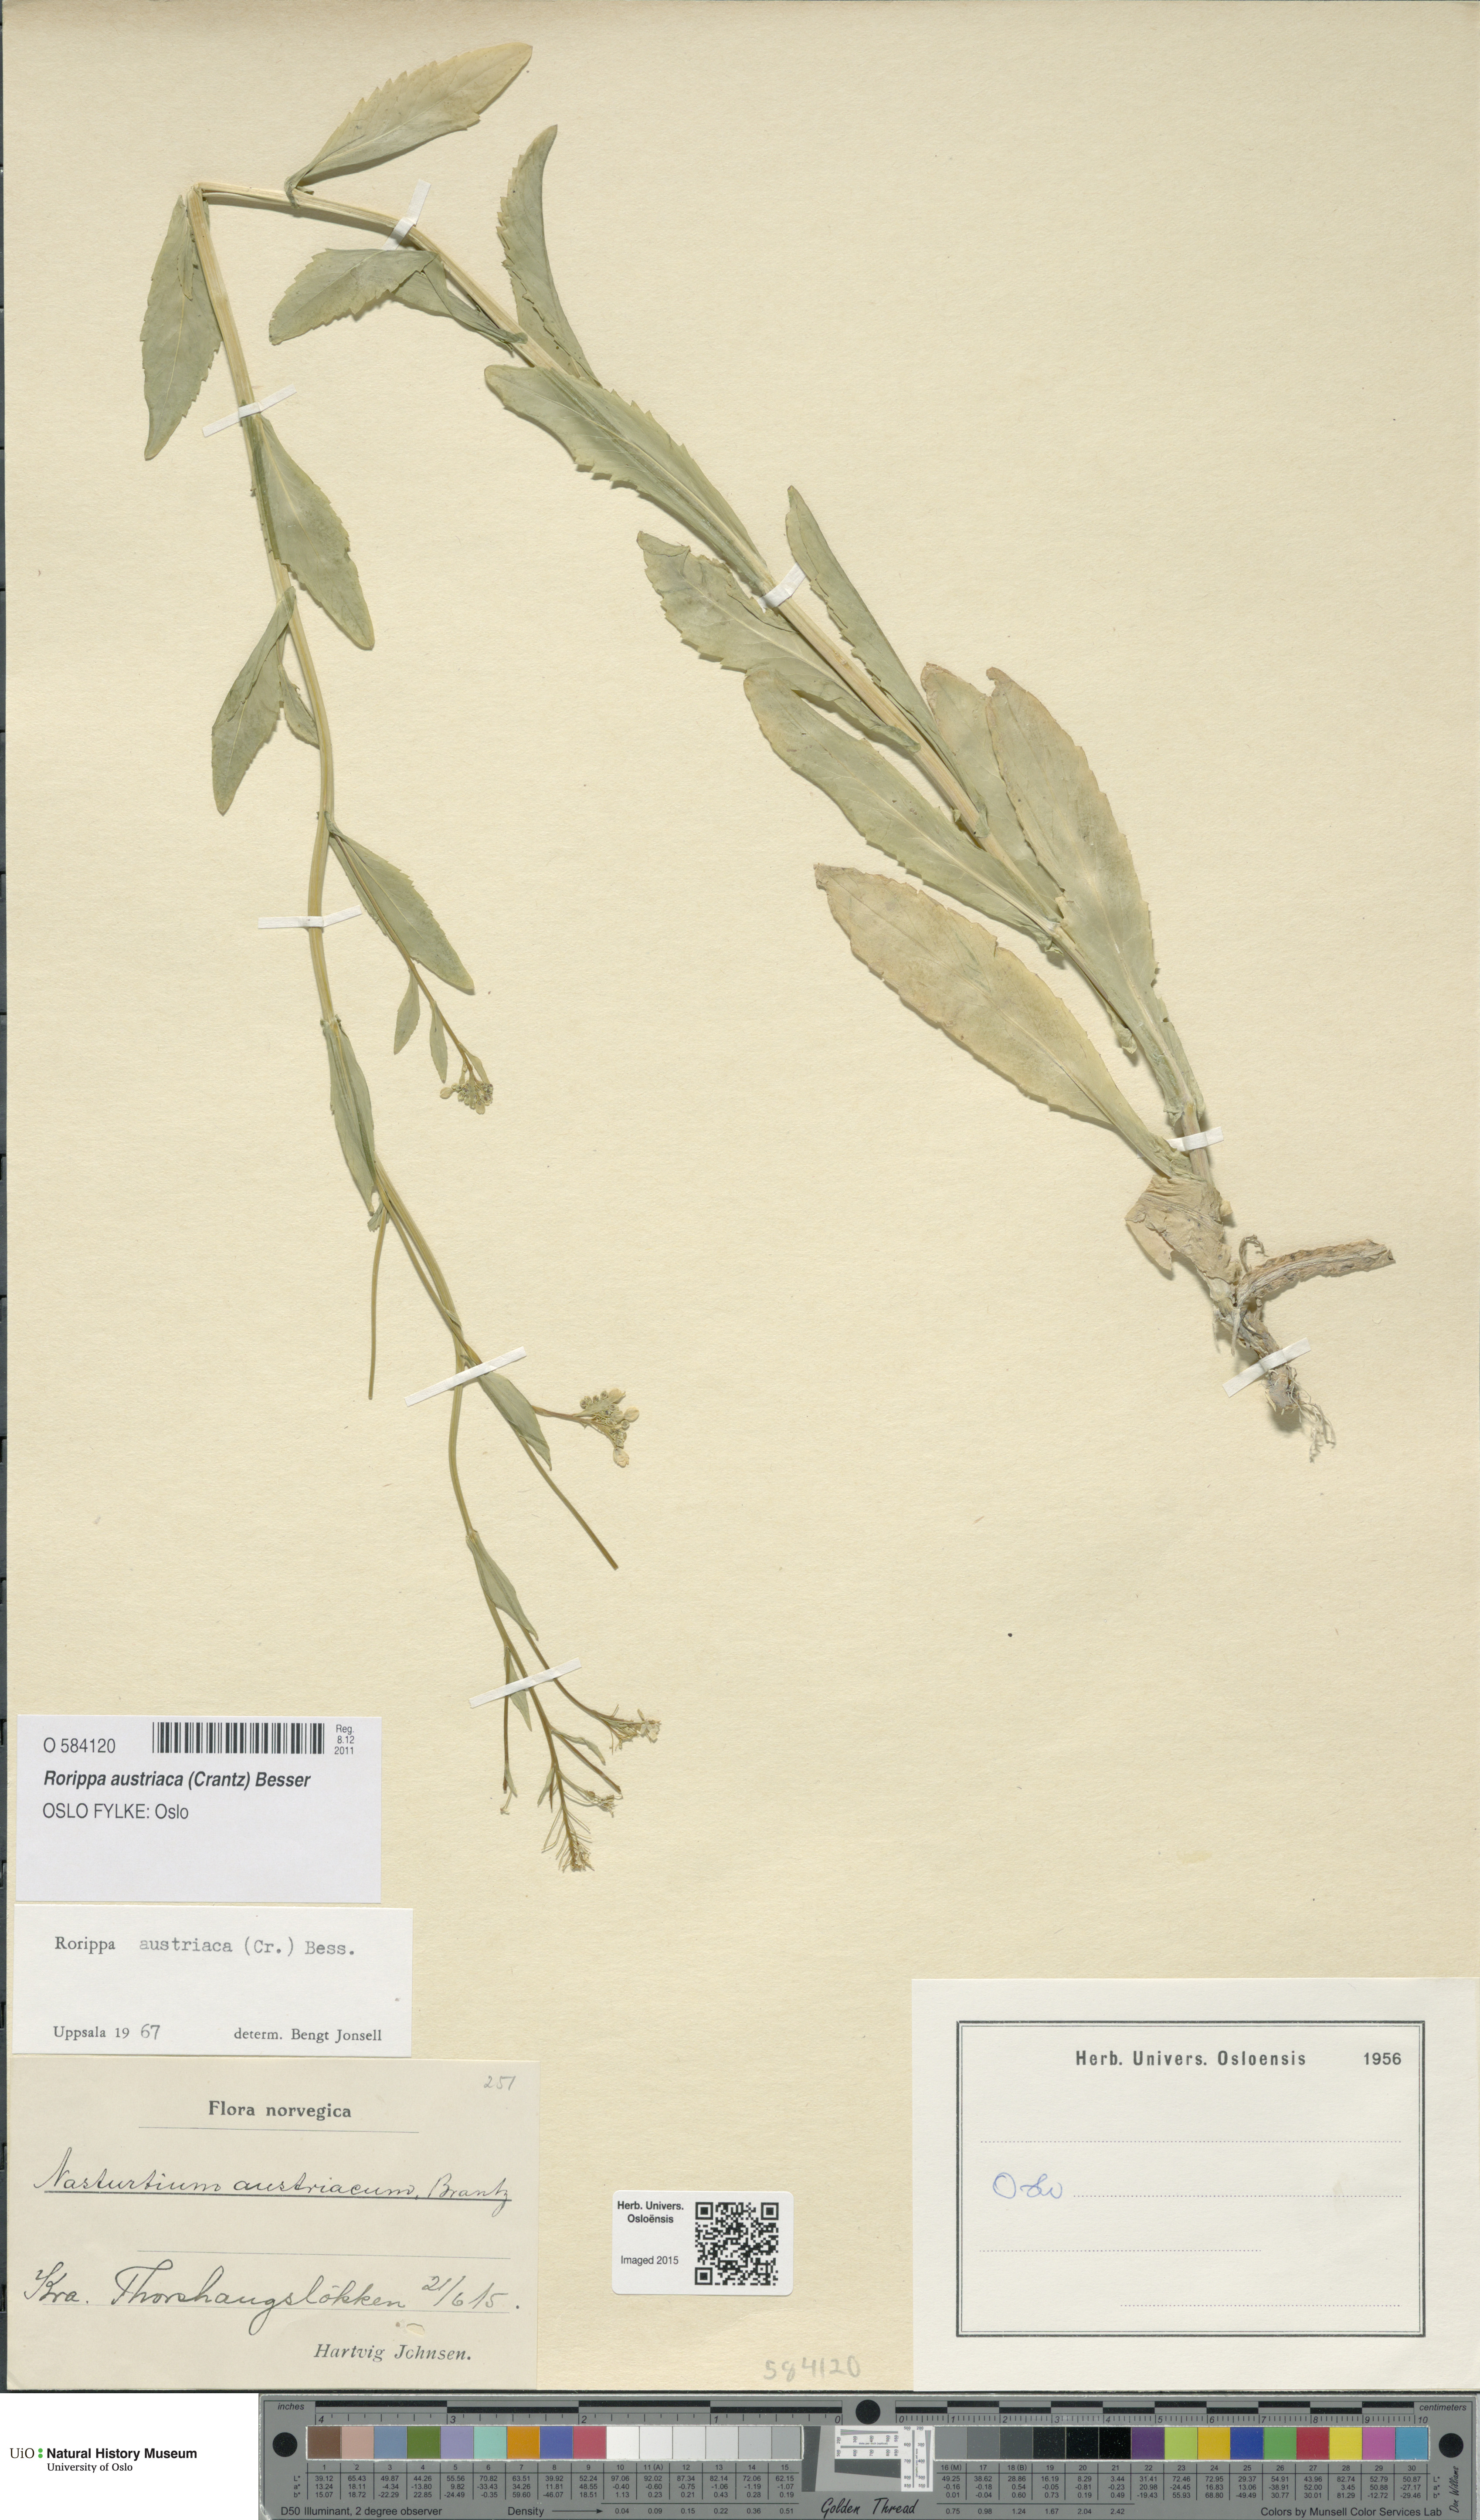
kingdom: Plantae
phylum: Tracheophyta
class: Magnoliopsida
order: Brassicales
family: Brassicaceae
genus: Rorippa
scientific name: Rorippa austriaca
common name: Austrian yellow-cress
